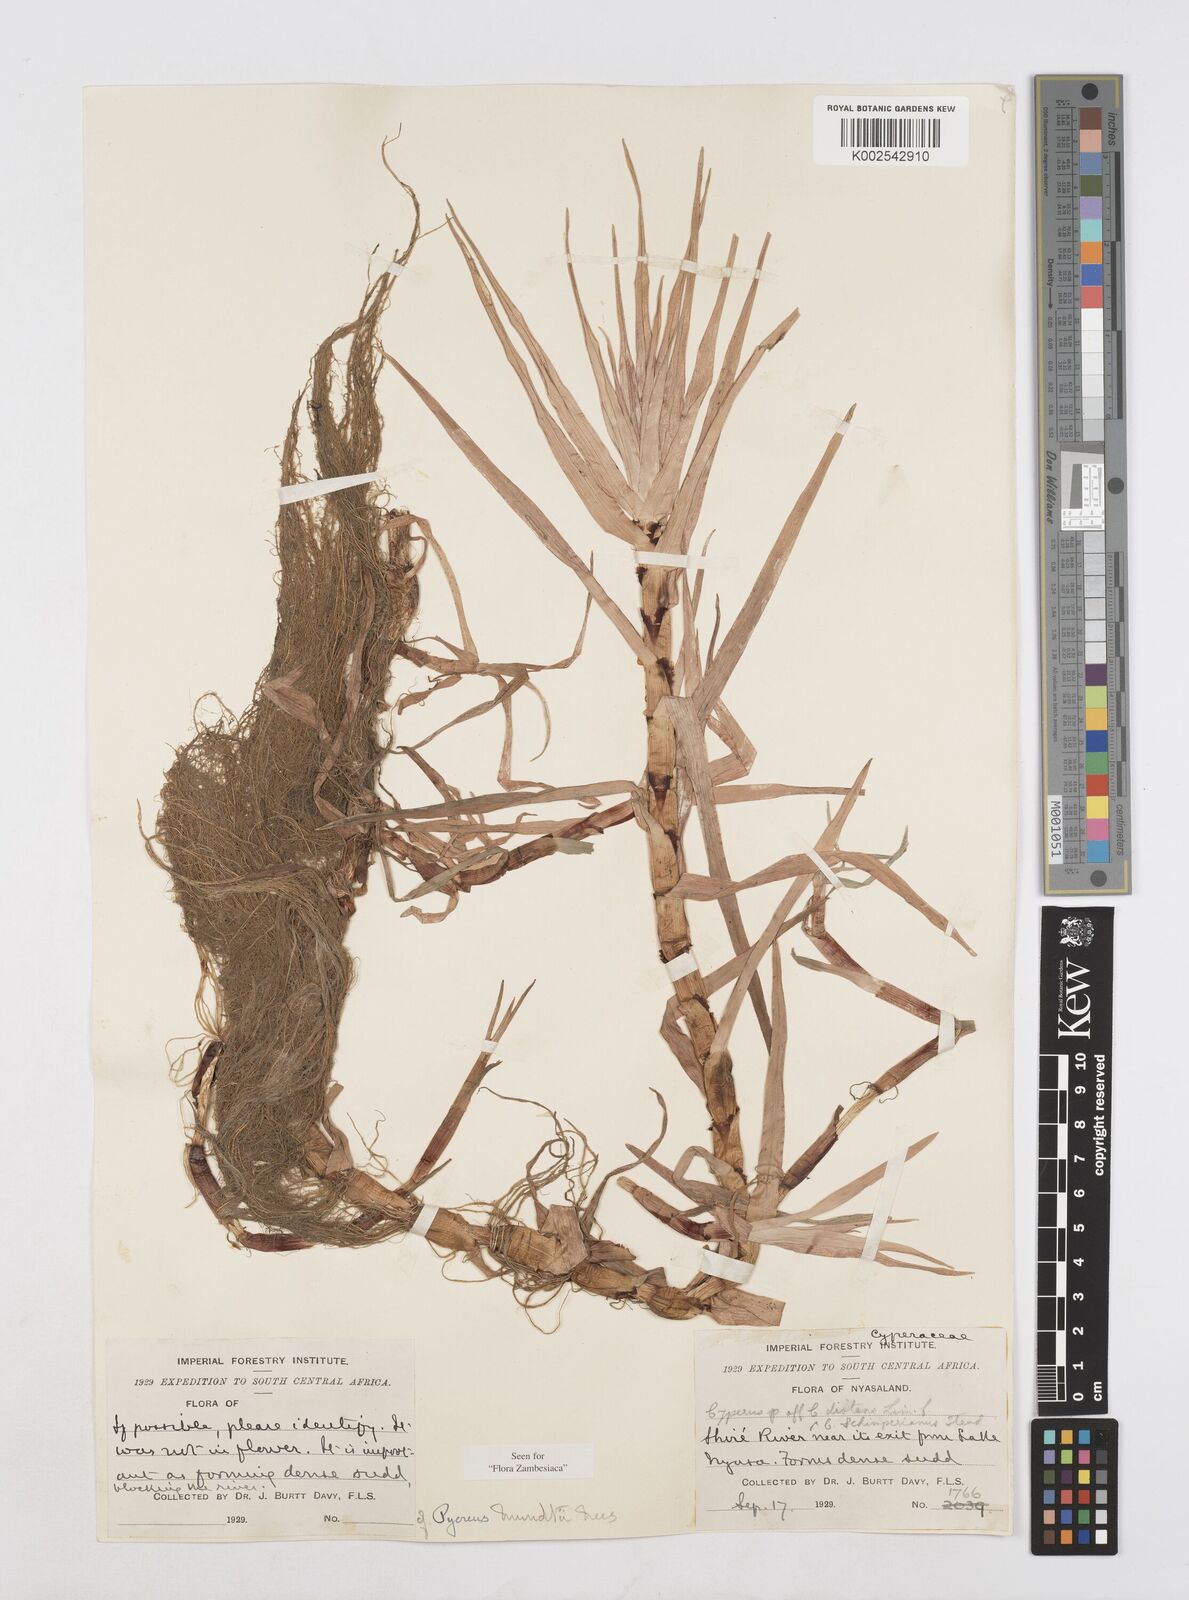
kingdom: Plantae
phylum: Tracheophyta
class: Liliopsida
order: Poales
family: Cyperaceae
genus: Cyperus
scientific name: Cyperus mundii
